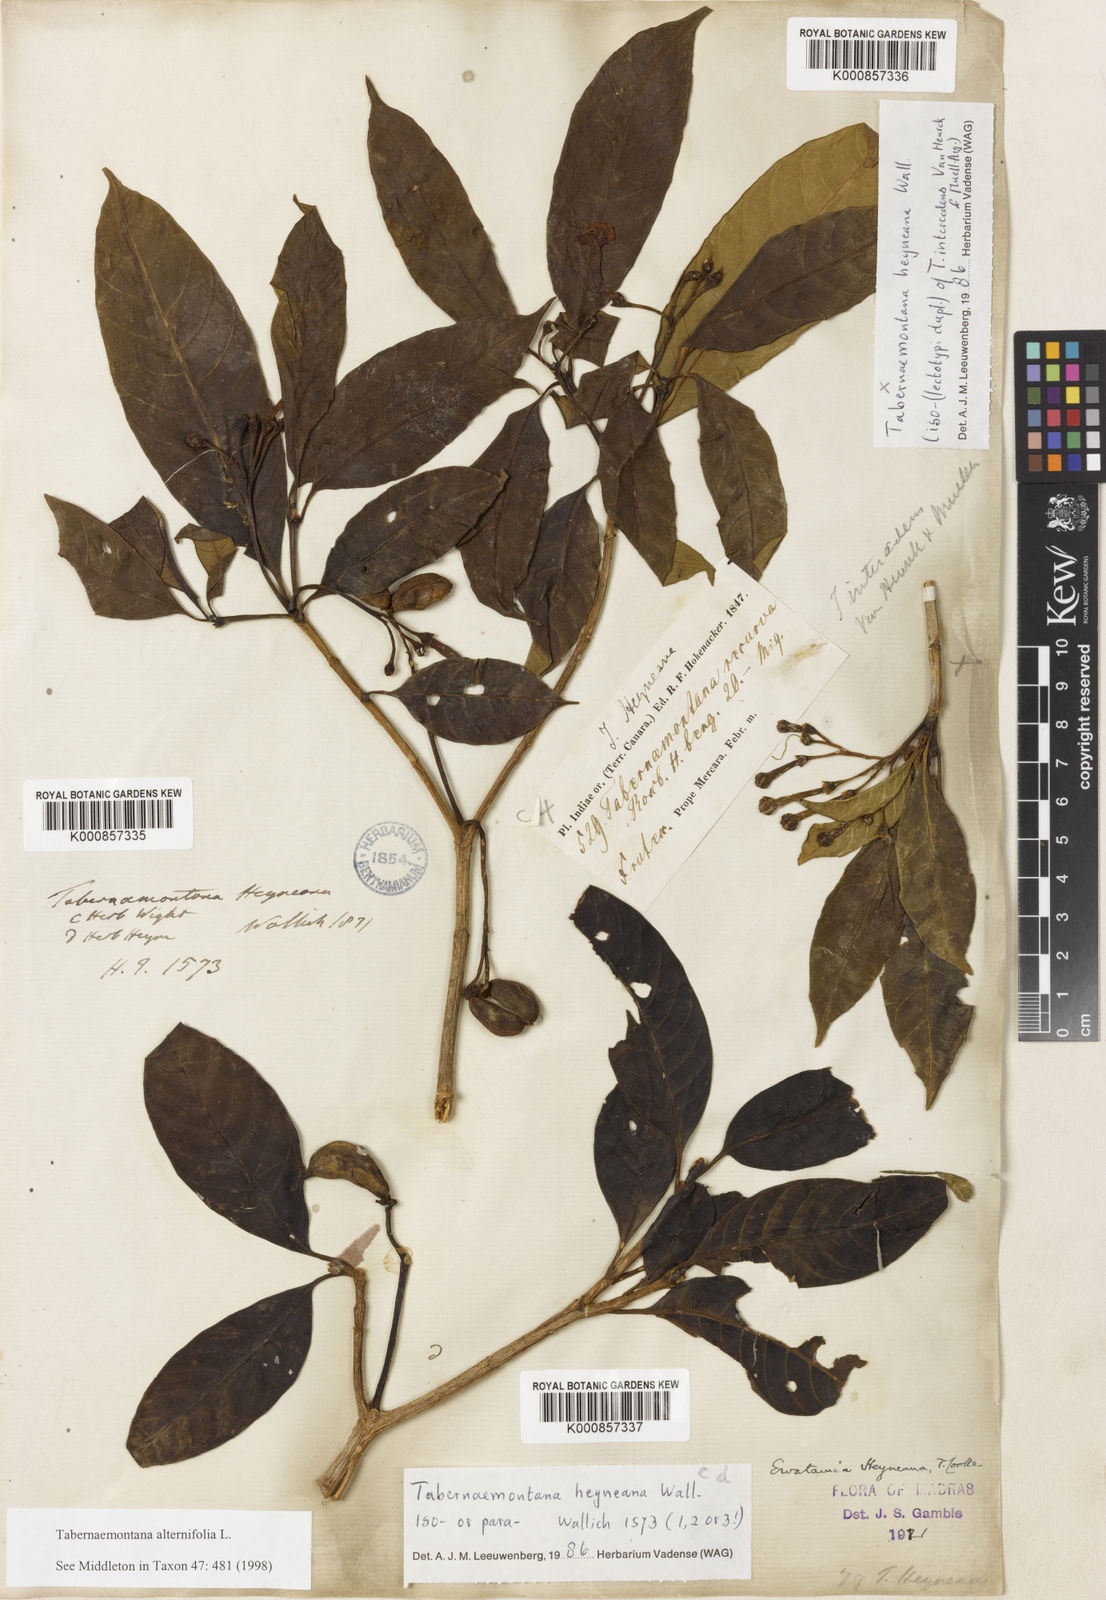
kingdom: Plantae
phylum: Tracheophyta
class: Magnoliopsida
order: Gentianales
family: Apocynaceae
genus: Tabernaemontana
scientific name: Tabernaemontana alternifolia
